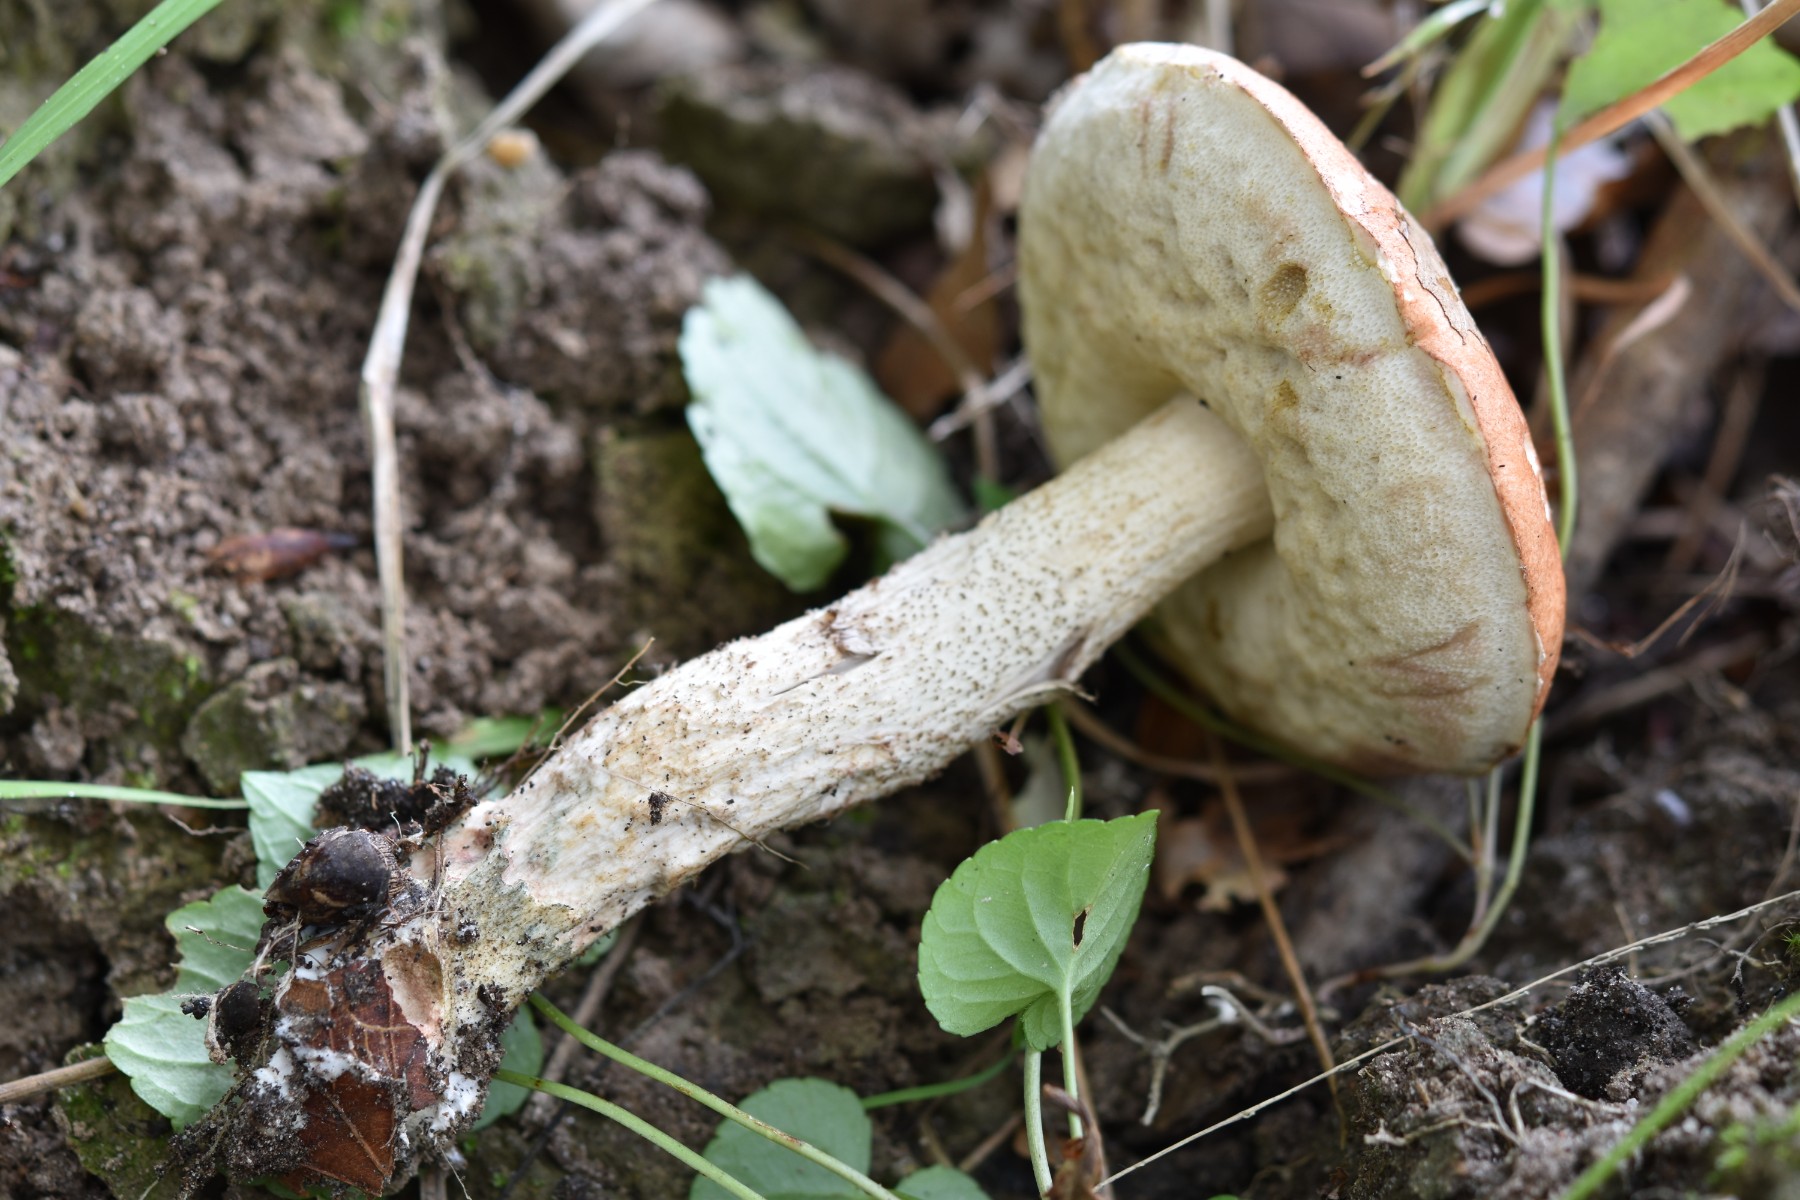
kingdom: Fungi
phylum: Basidiomycota
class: Agaricomycetes
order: Boletales
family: Boletaceae
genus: Leccinum
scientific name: Leccinum albostipitatum
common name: aspe-skælrørhat
